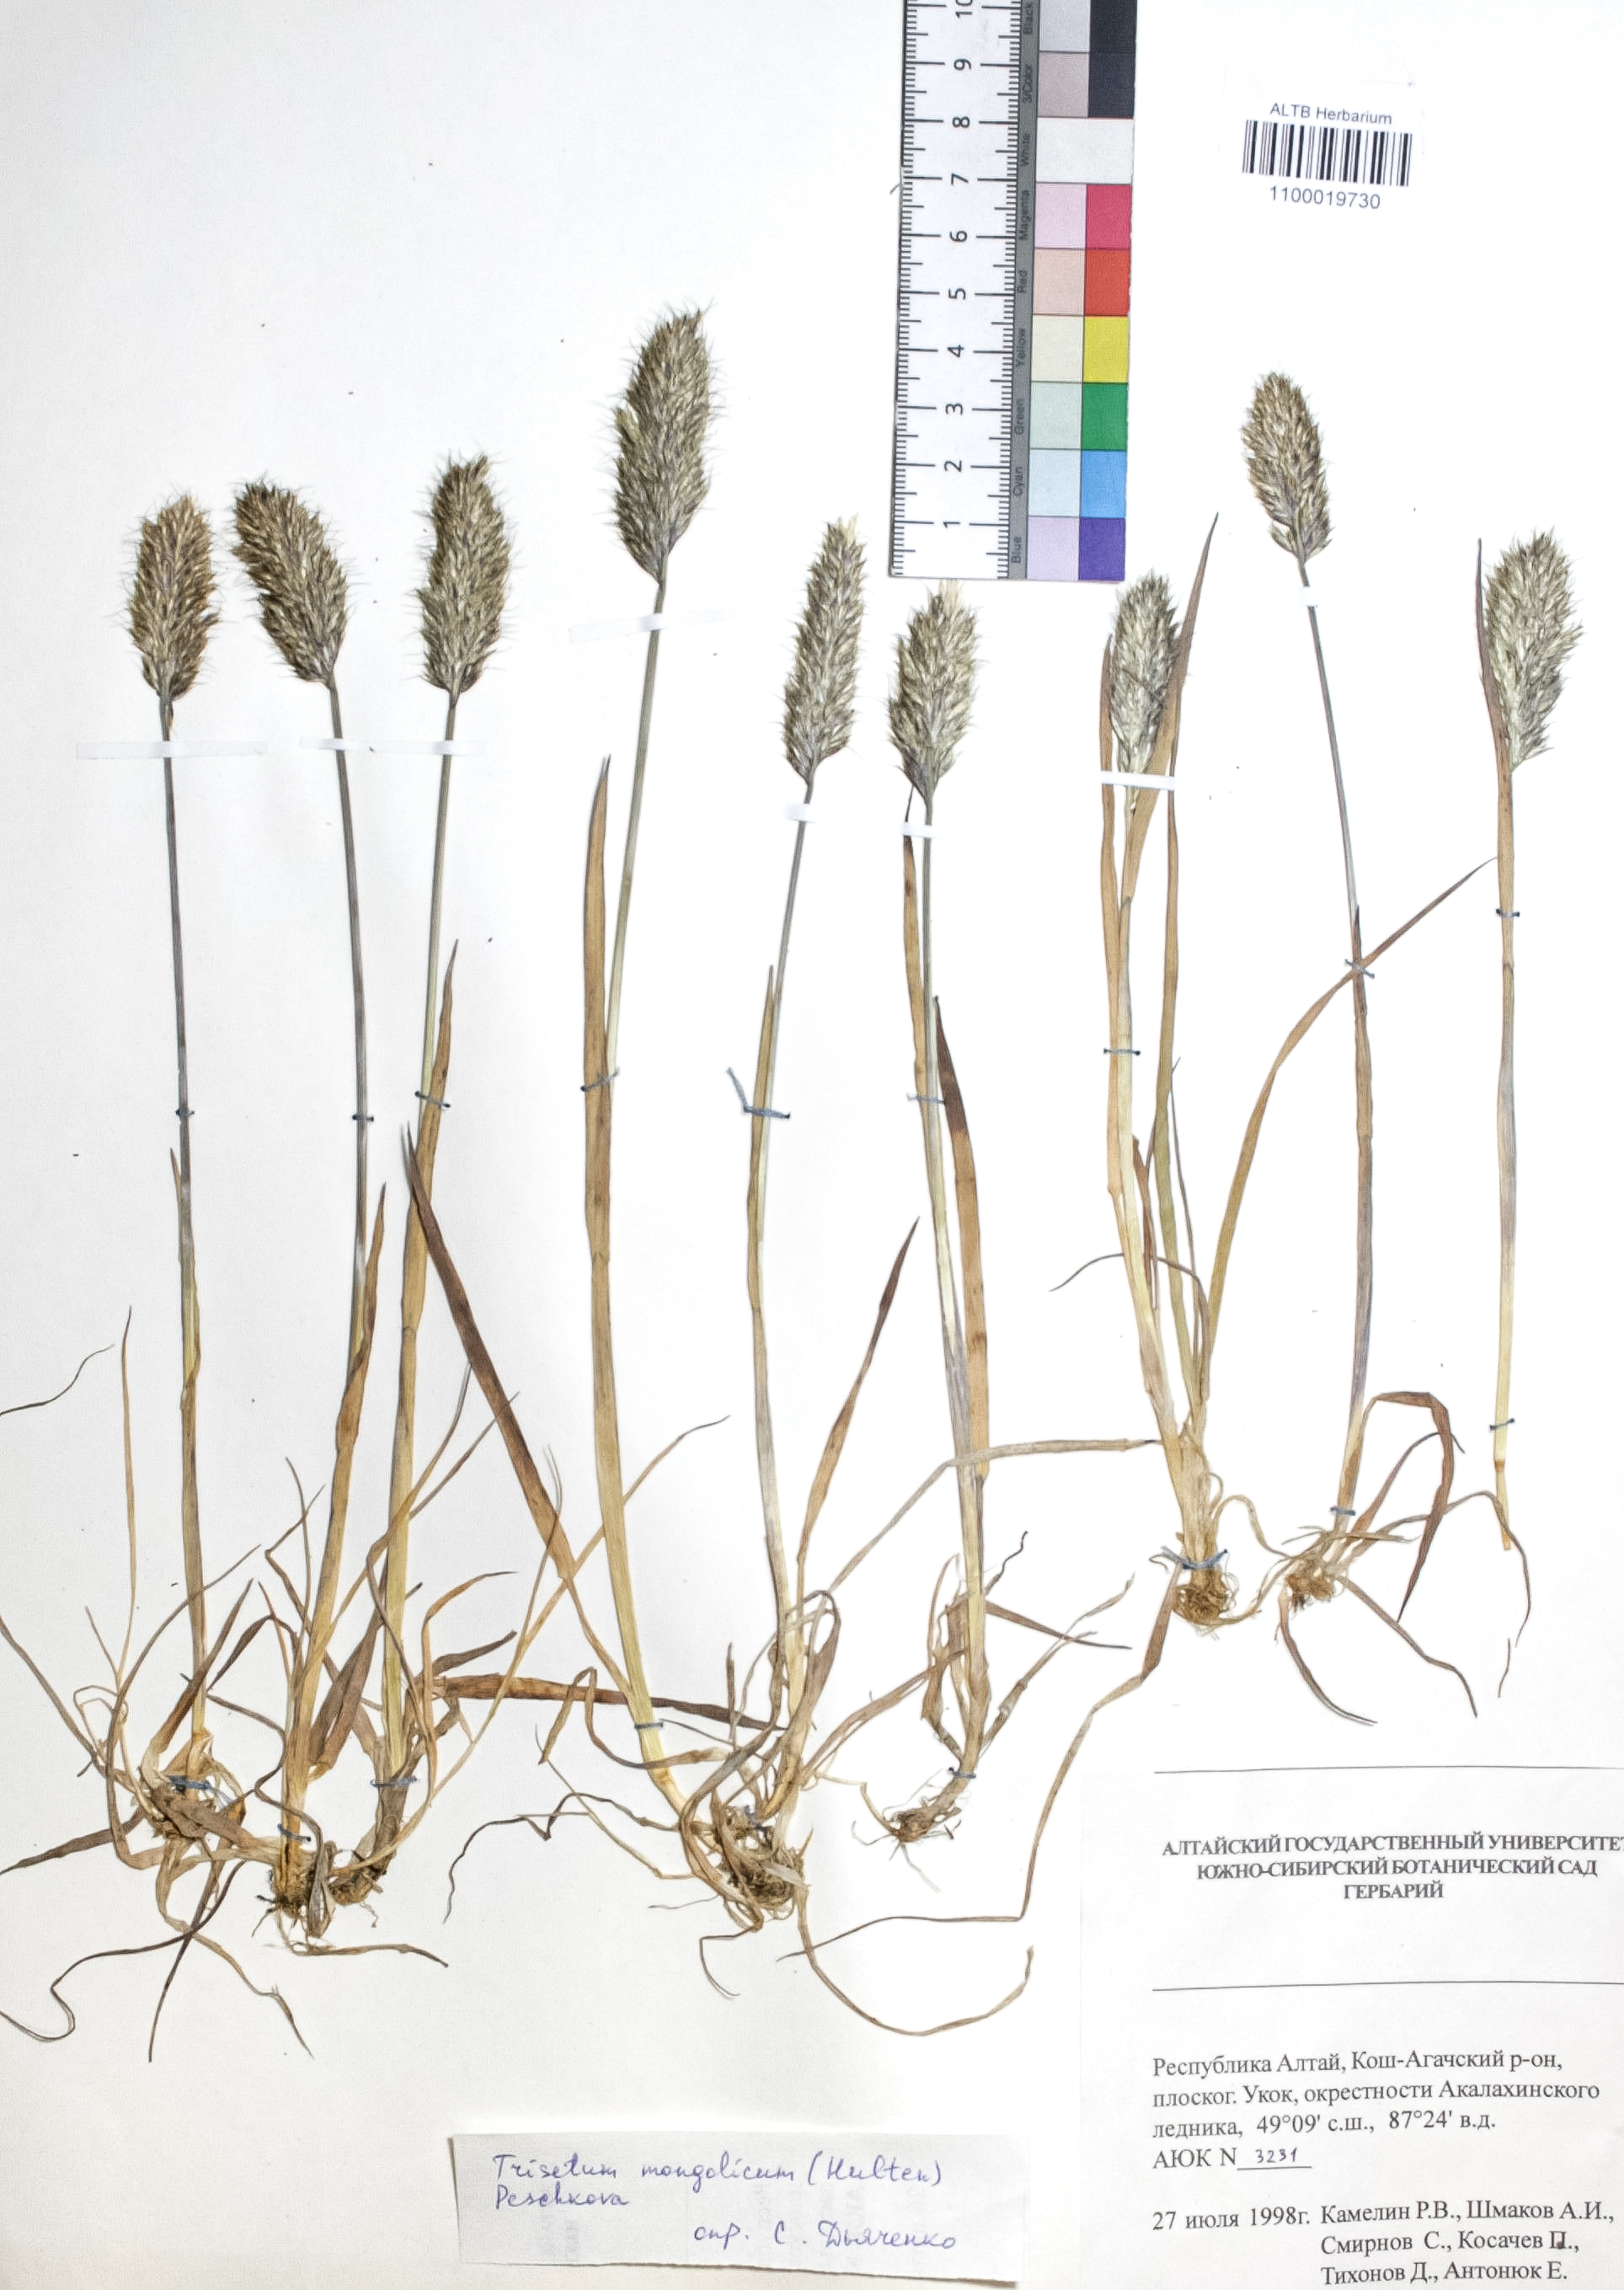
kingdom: Plantae
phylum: Tracheophyta
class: Liliopsida
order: Poales
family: Poaceae
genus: Koeleria
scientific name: Koeleria spicata
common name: Mountain trisetum
